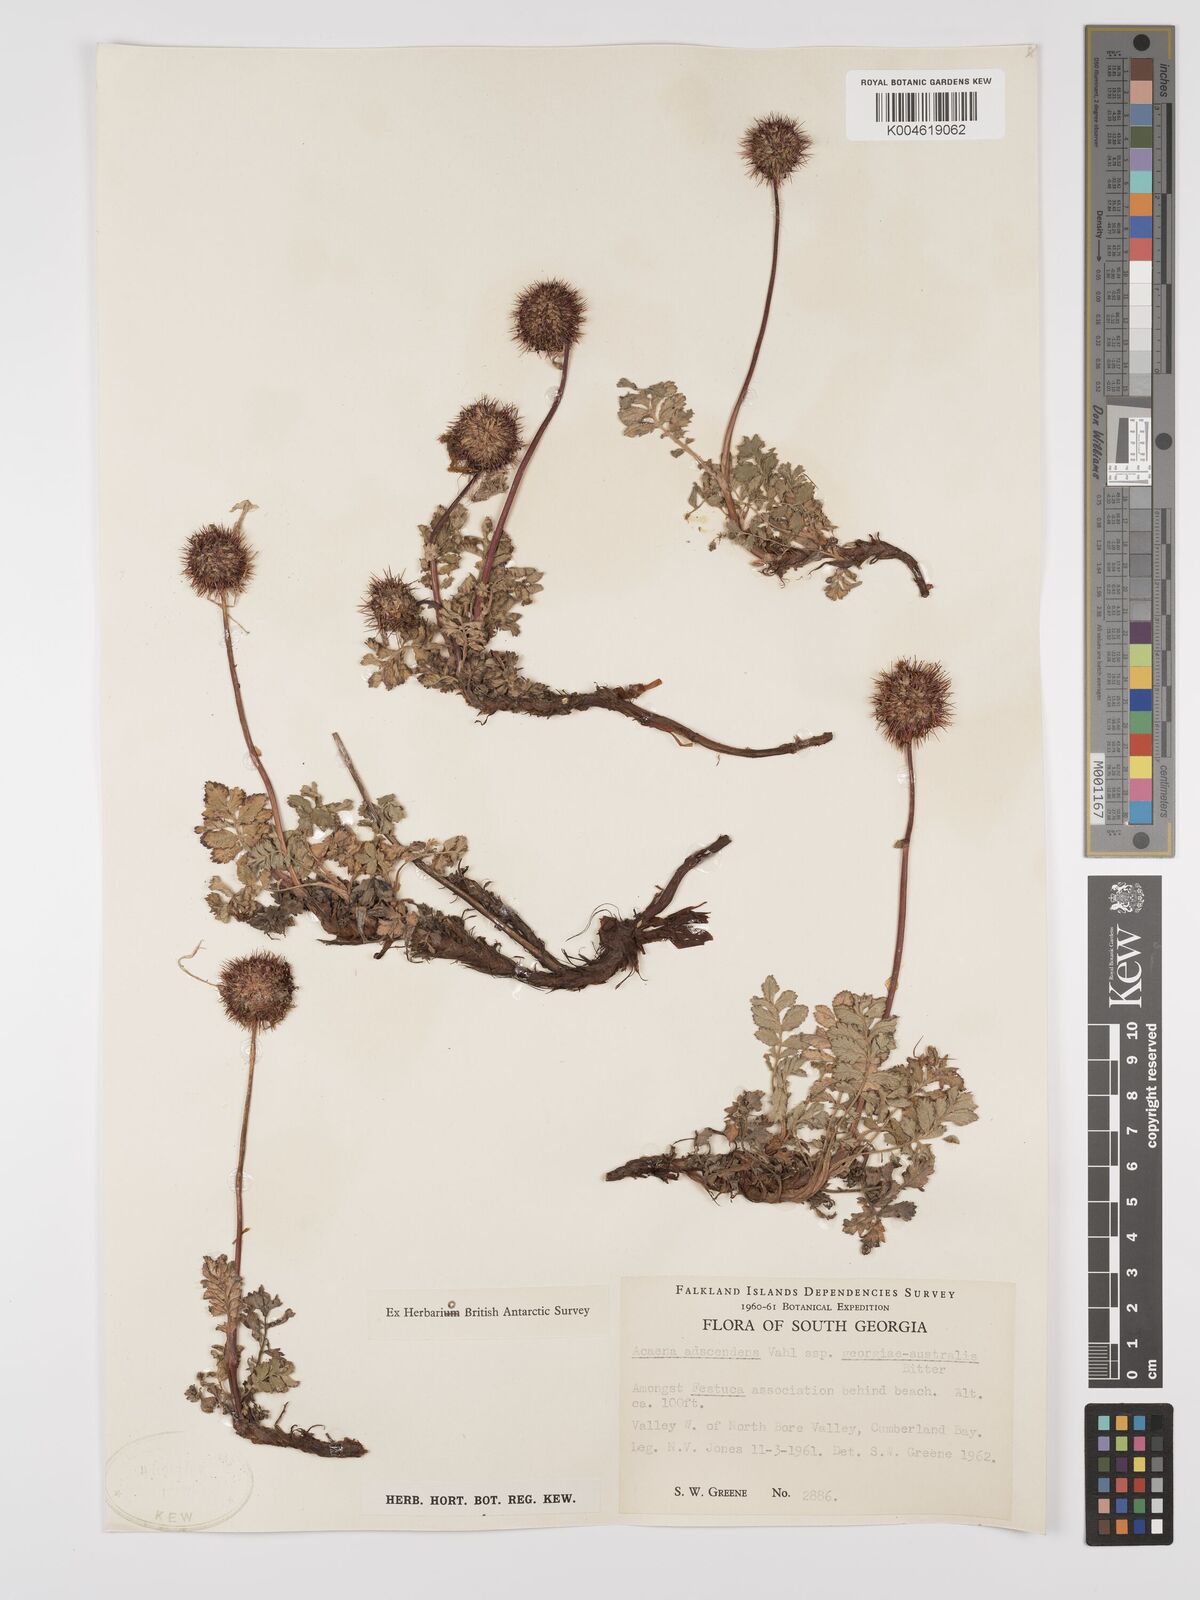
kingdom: Plantae
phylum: Tracheophyta
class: Magnoliopsida
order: Rosales
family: Rosaceae
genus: Acaena
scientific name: Acaena magellanica
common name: New zealand burr
